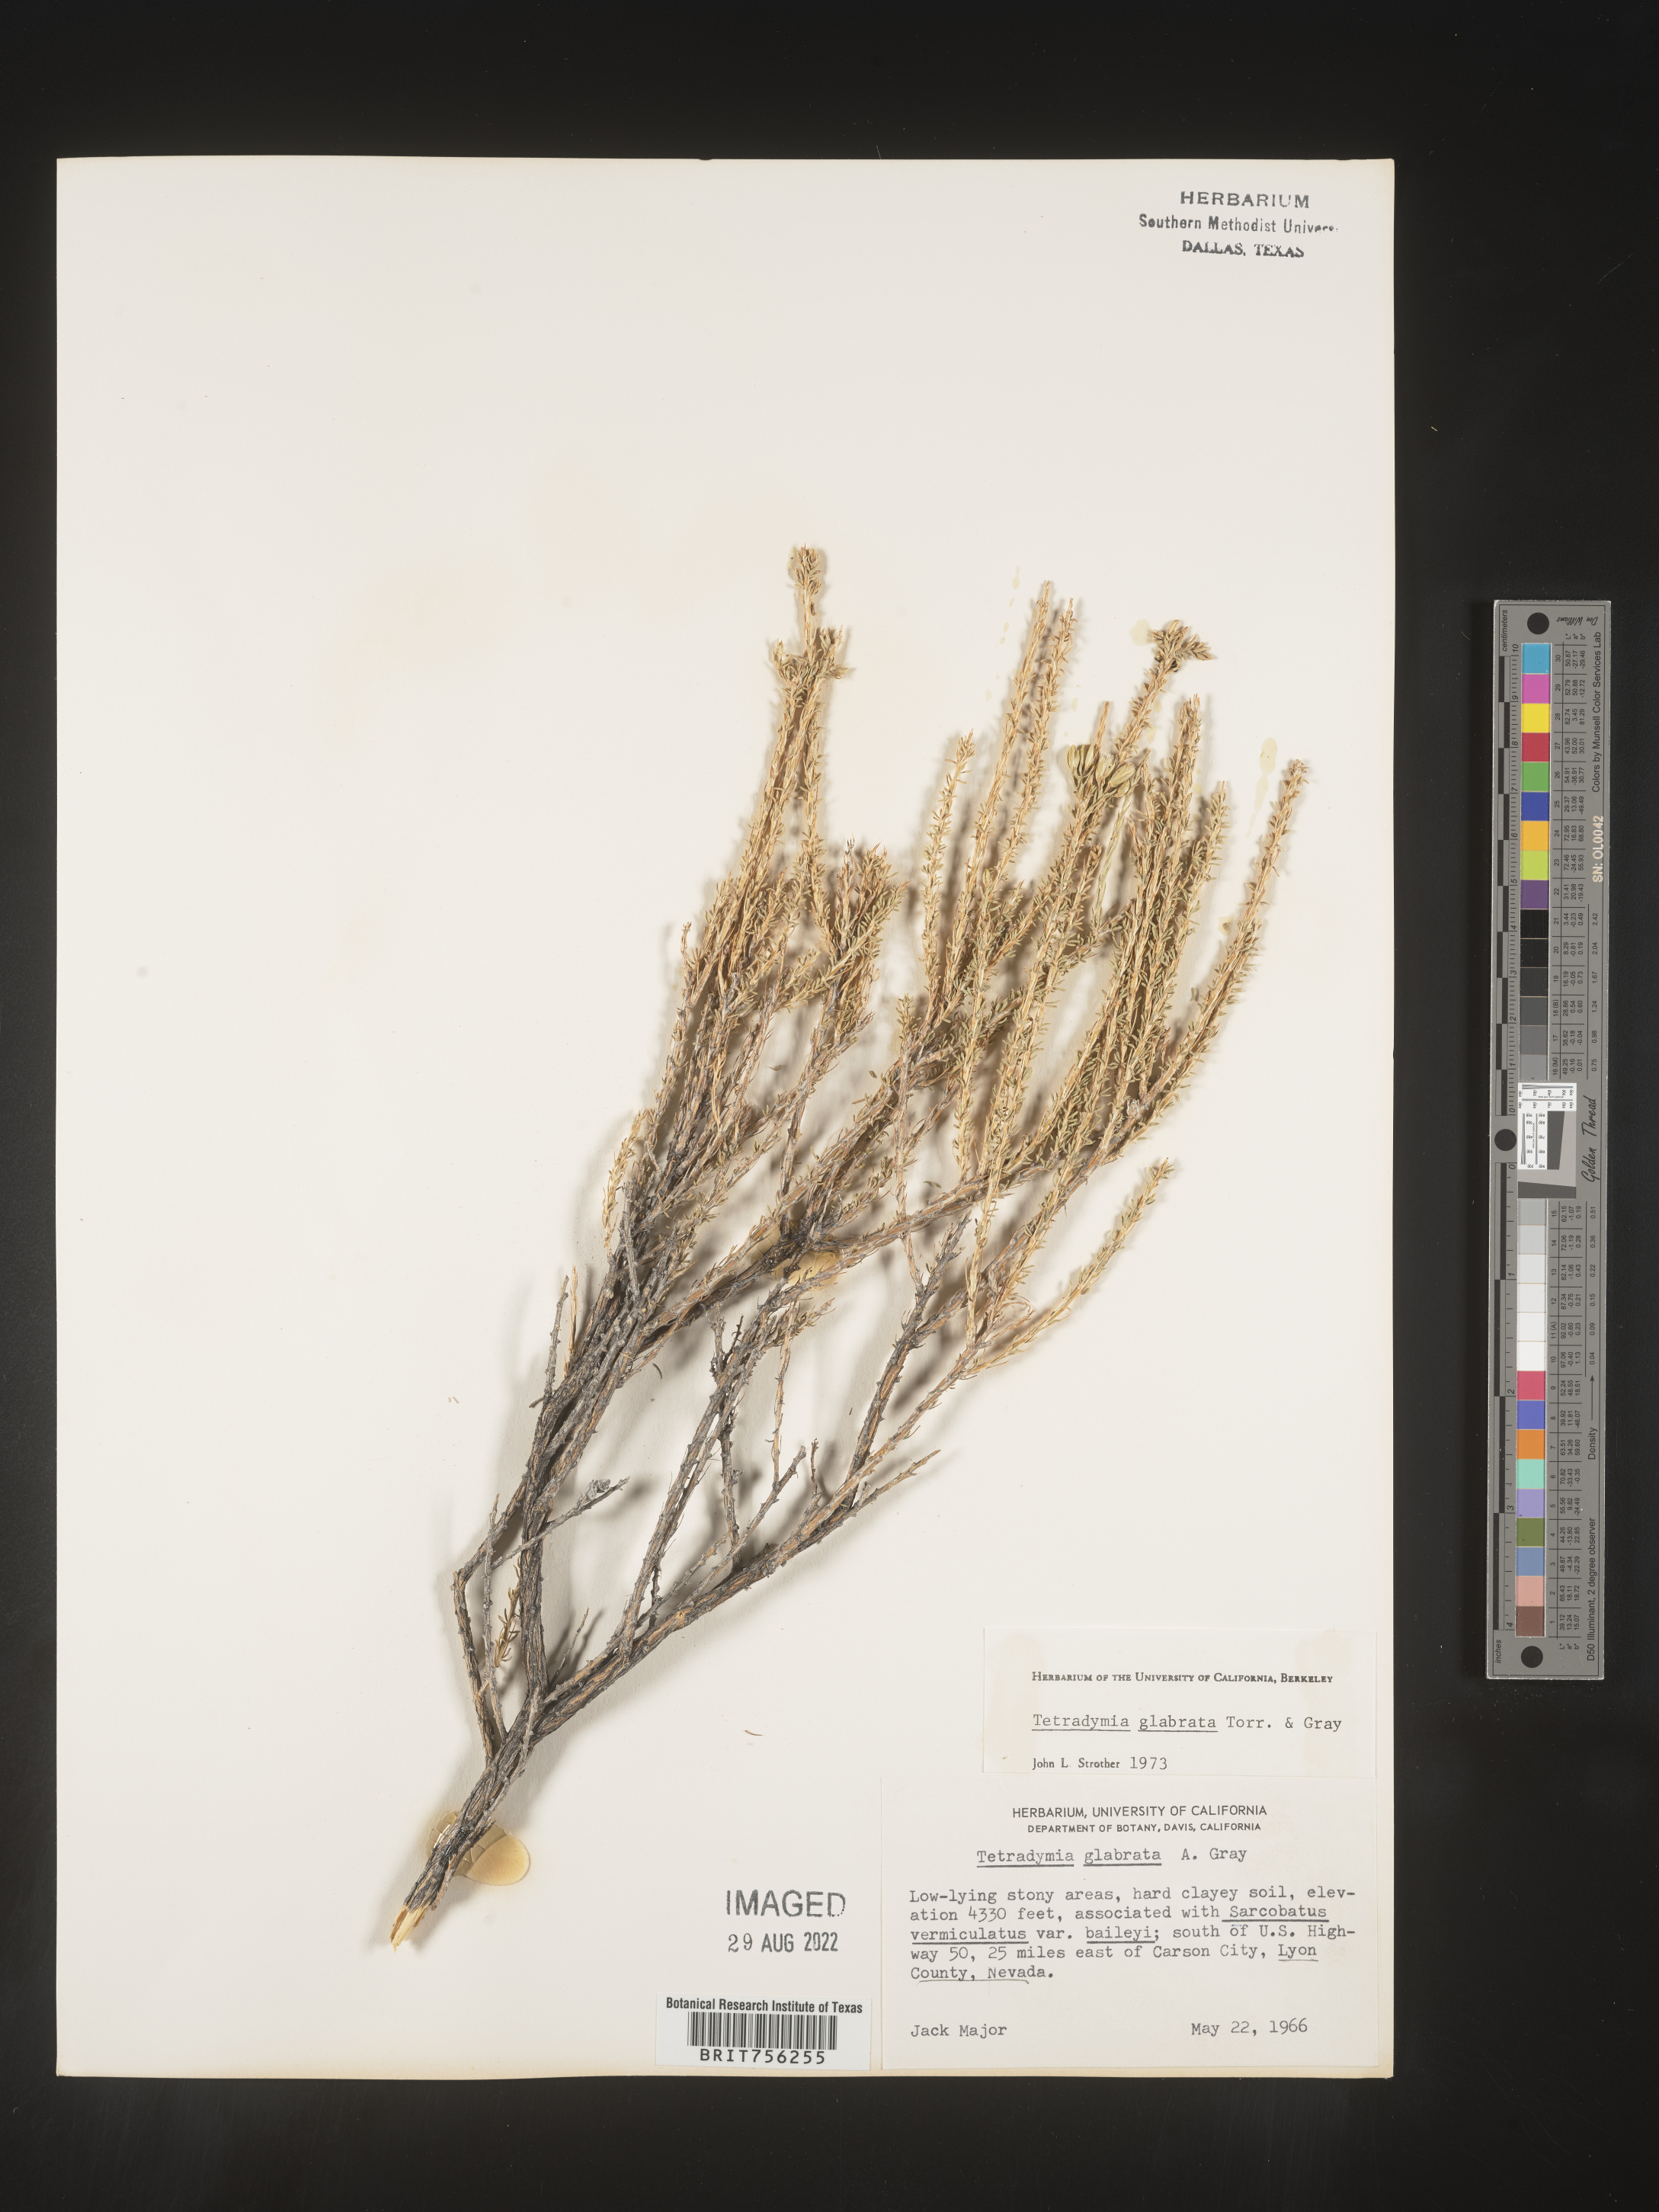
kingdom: Plantae
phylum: Tracheophyta
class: Magnoliopsida
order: Asterales
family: Asteraceae
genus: Tetradymia
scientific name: Tetradymia glabrata
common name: Smooth tetradymia
